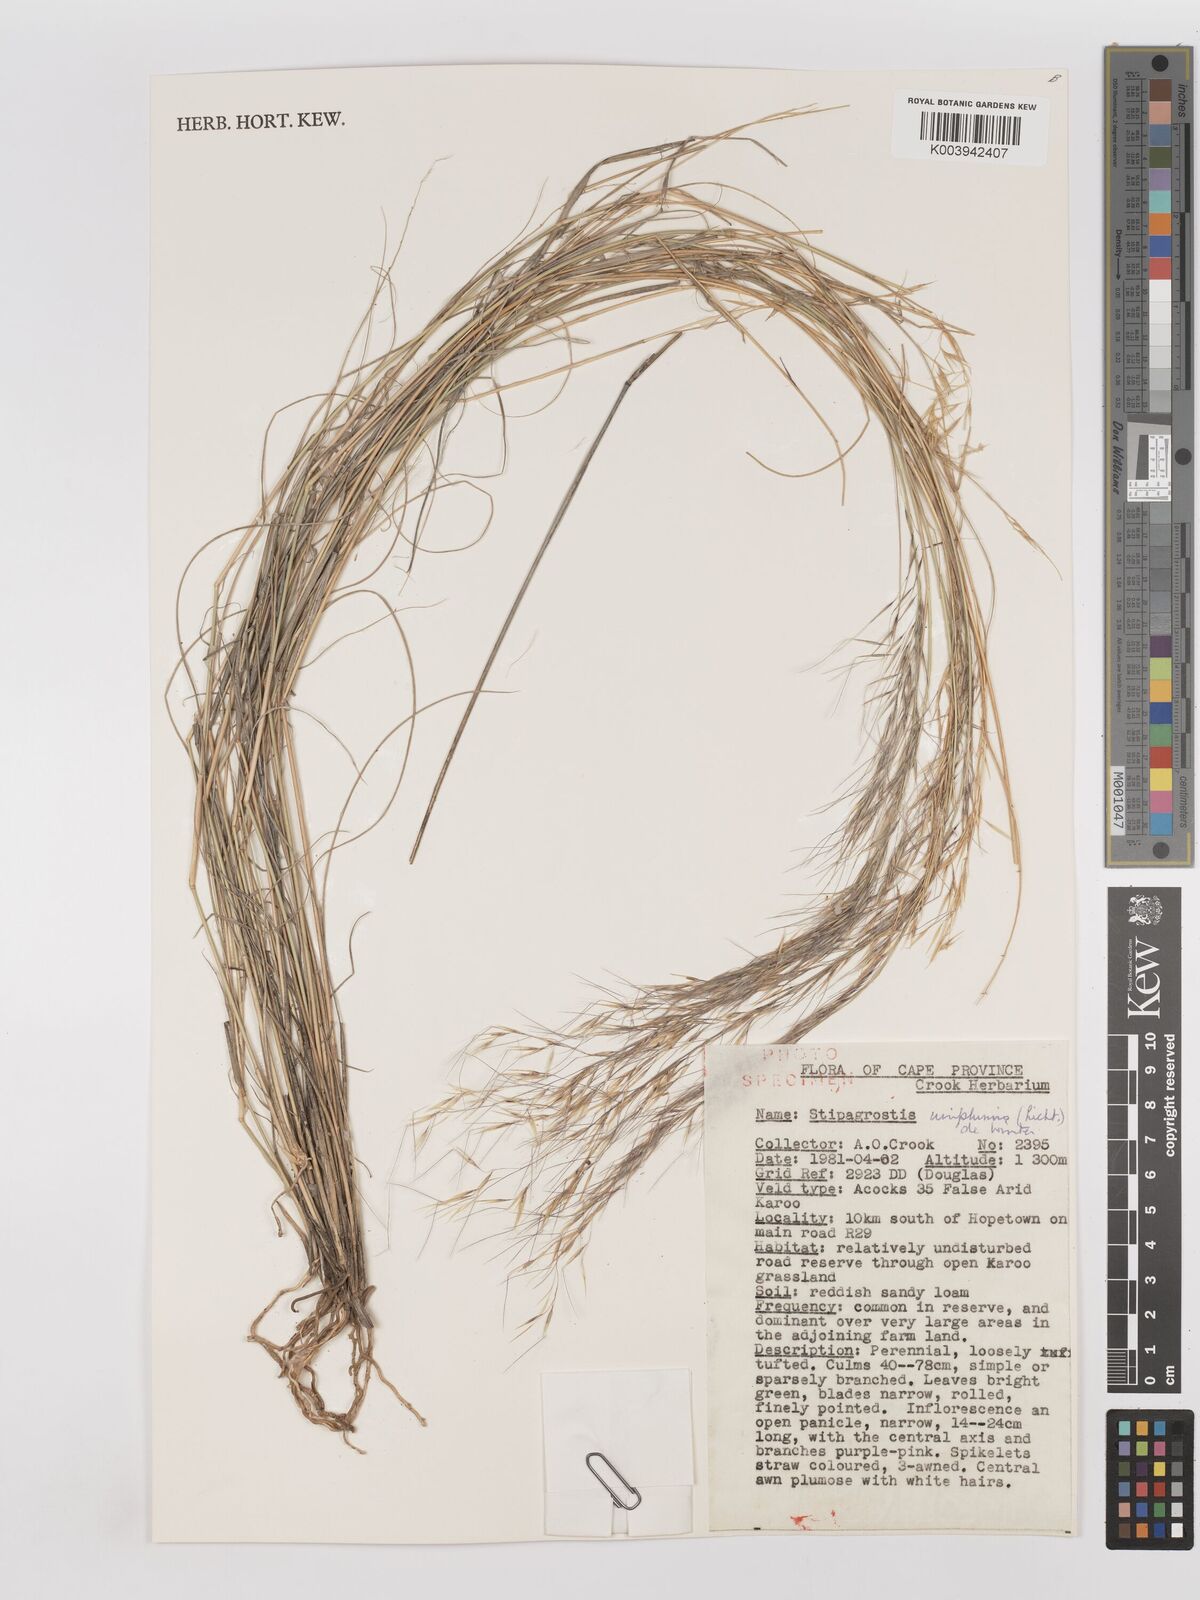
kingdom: Plantae
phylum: Tracheophyta
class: Liliopsida
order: Poales
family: Poaceae
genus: Stipagrostis
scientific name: Stipagrostis uniplumis
